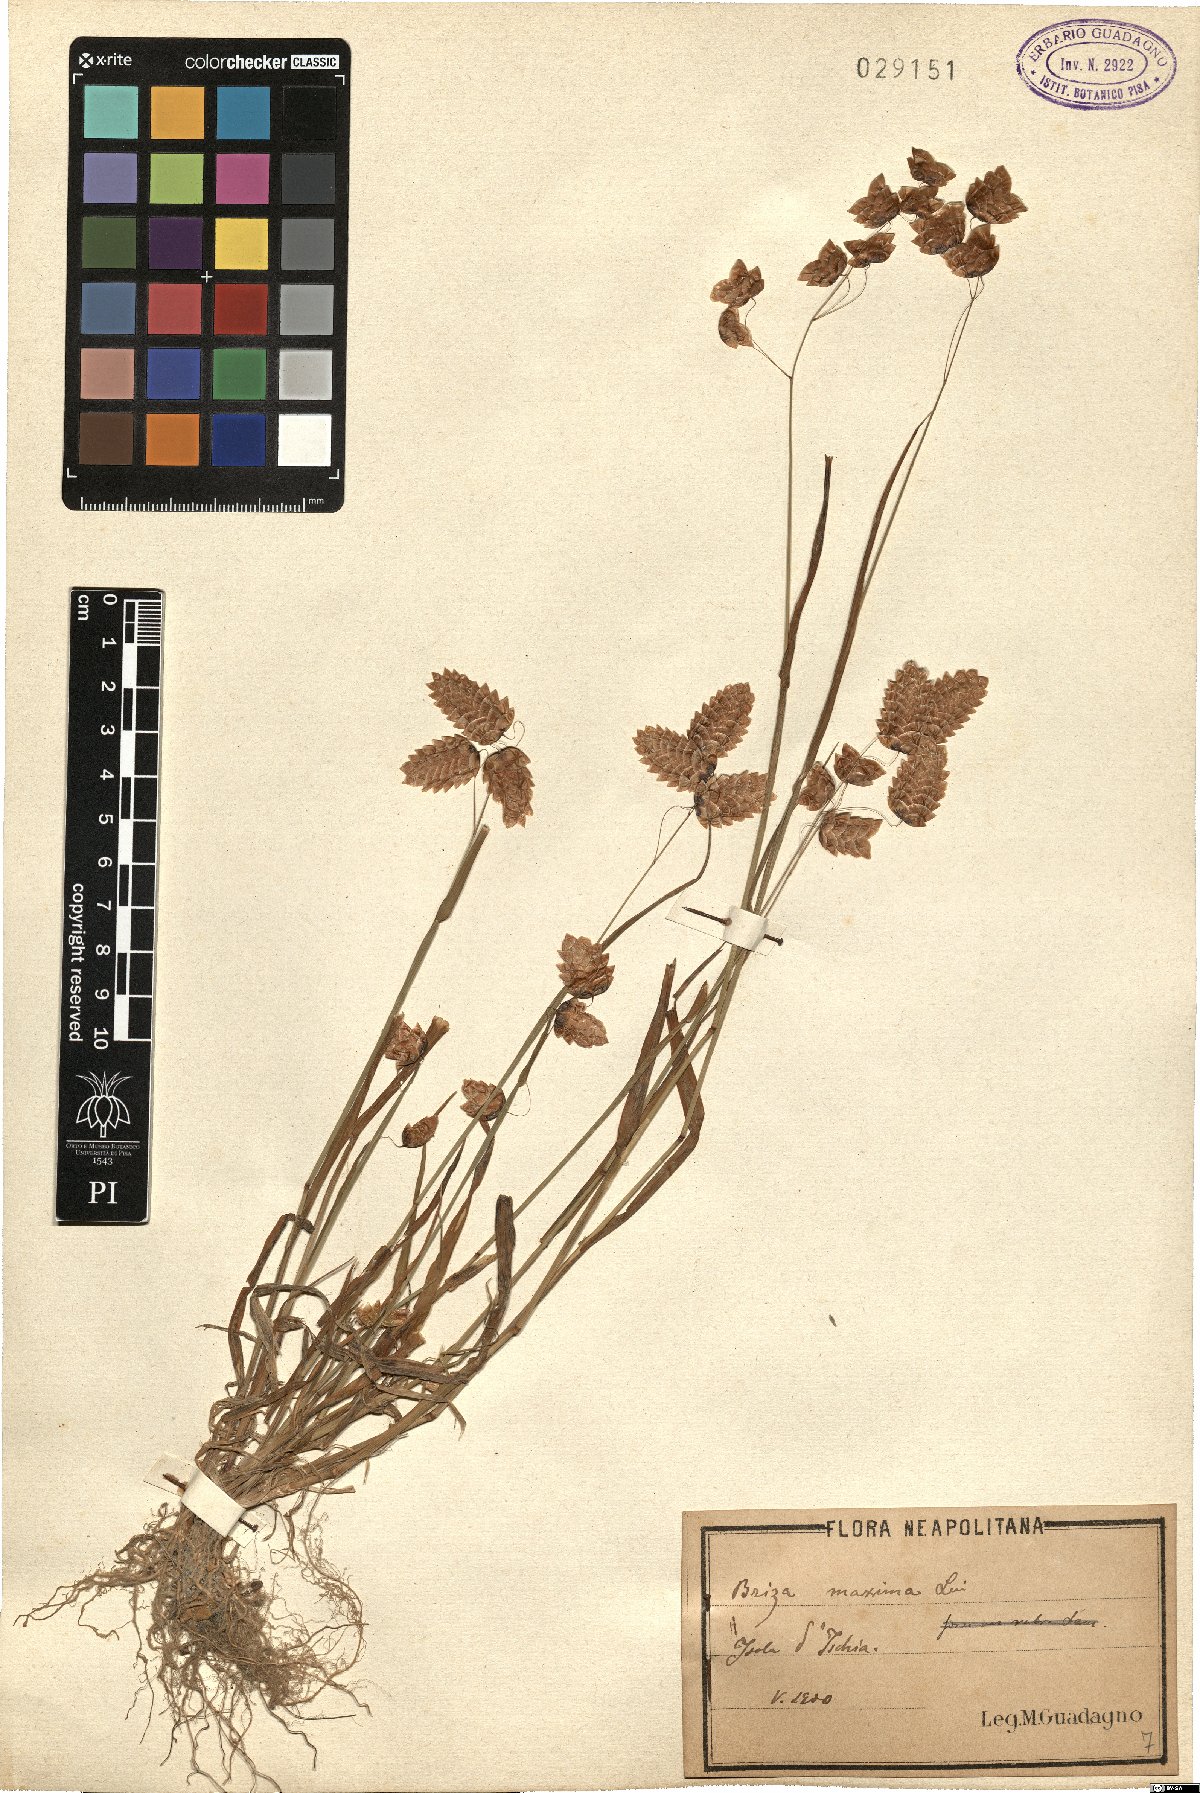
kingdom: Plantae
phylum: Tracheophyta
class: Liliopsida
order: Poales
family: Poaceae
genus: Briza
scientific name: Briza maxima
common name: Big quakinggrass
